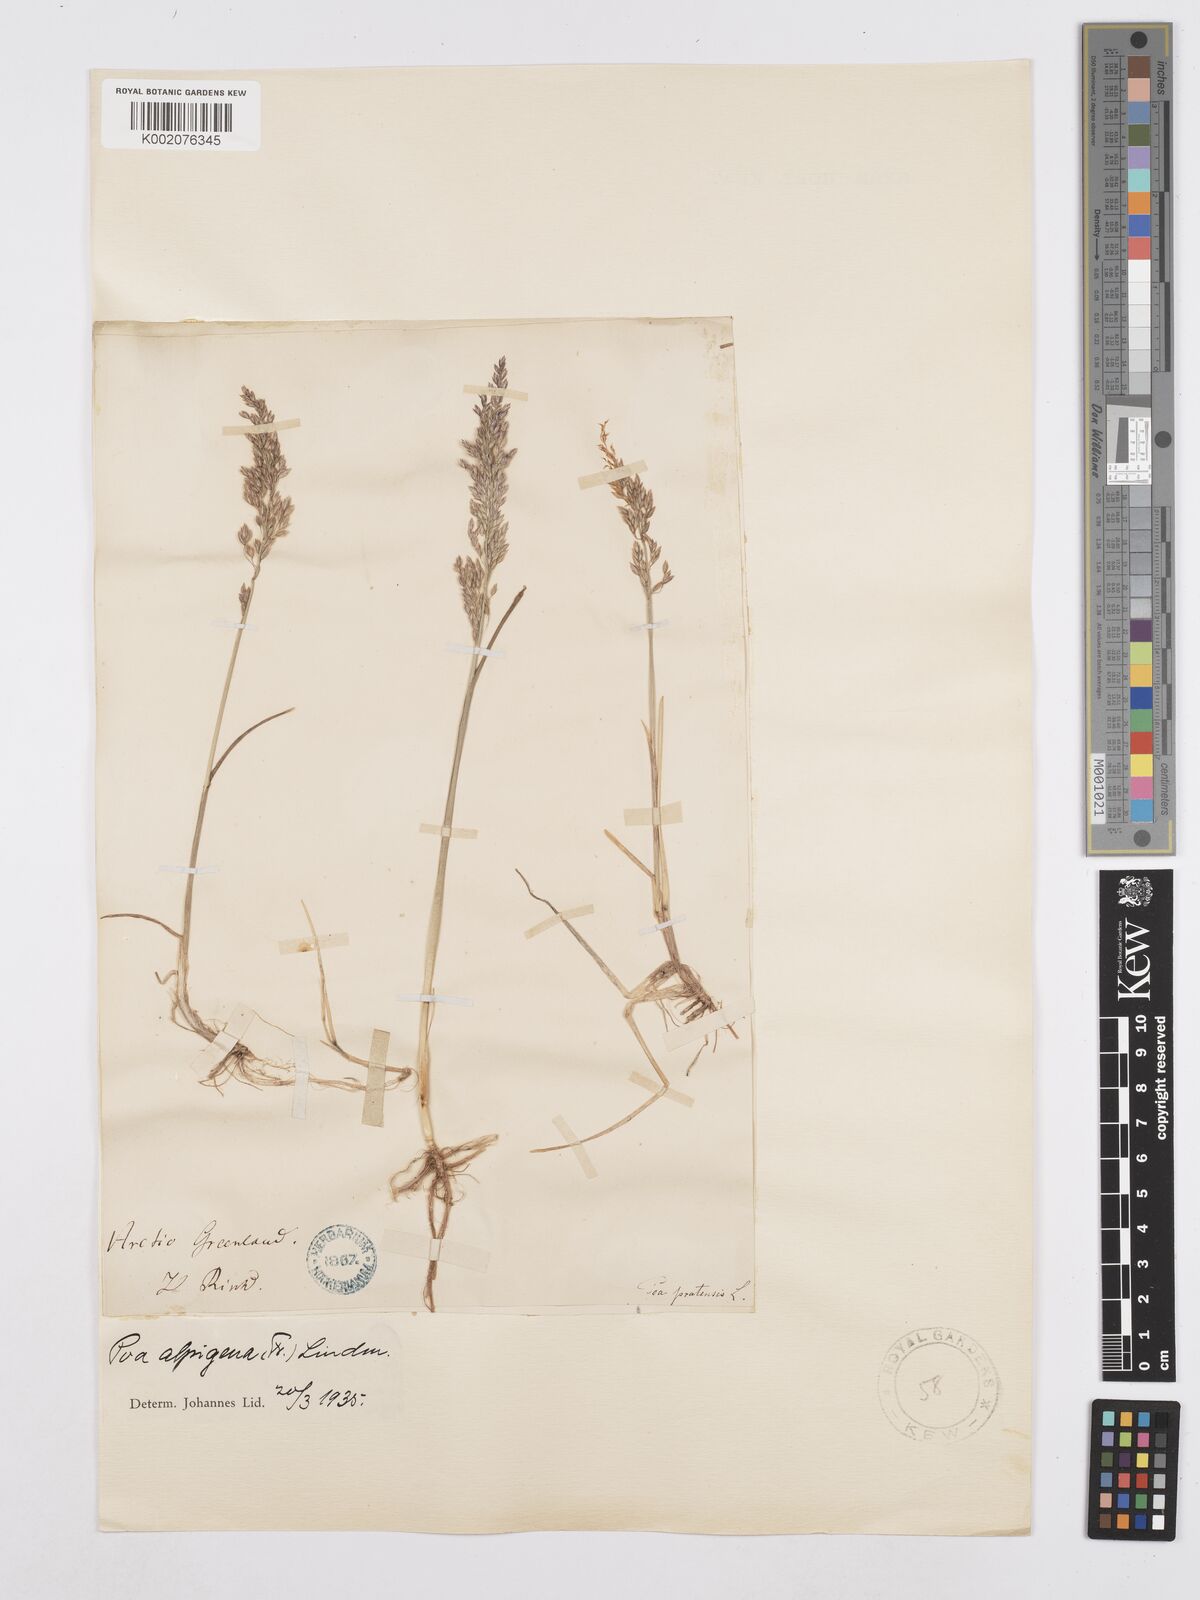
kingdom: Plantae
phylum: Tracheophyta
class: Liliopsida
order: Poales
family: Poaceae
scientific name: Poaceae
